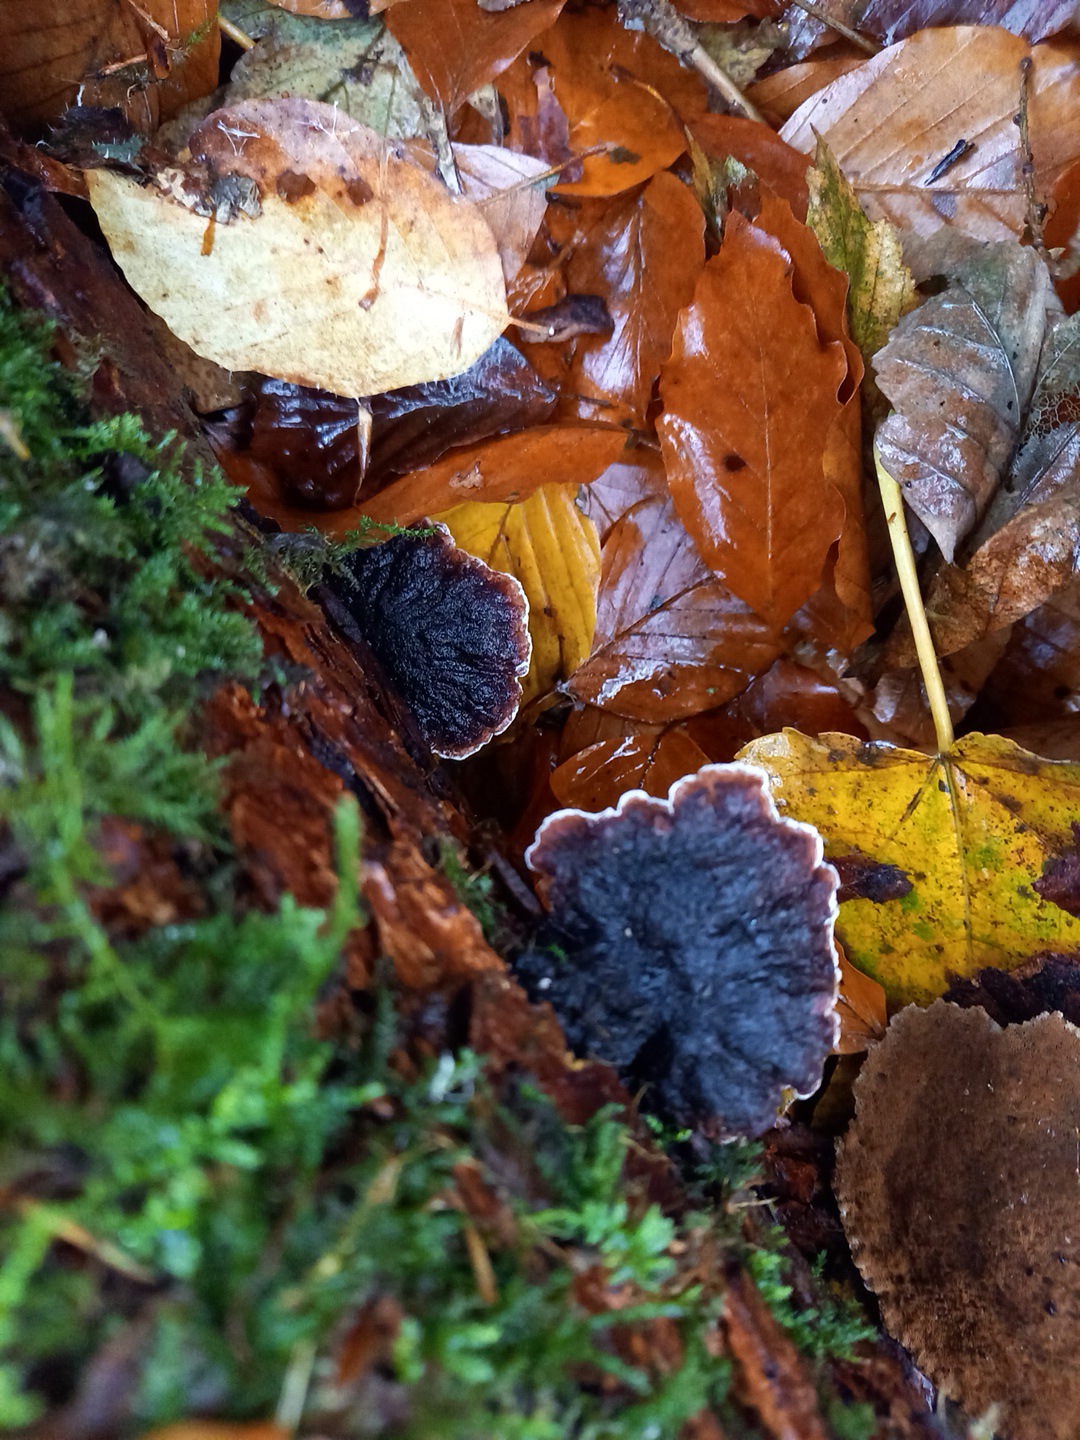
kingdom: Fungi
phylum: Basidiomycota
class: Agaricomycetes
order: Polyporales
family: Ischnodermataceae
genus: Ischnoderma
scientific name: Ischnoderma benzoinum
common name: gran-tjæreporesvamp
